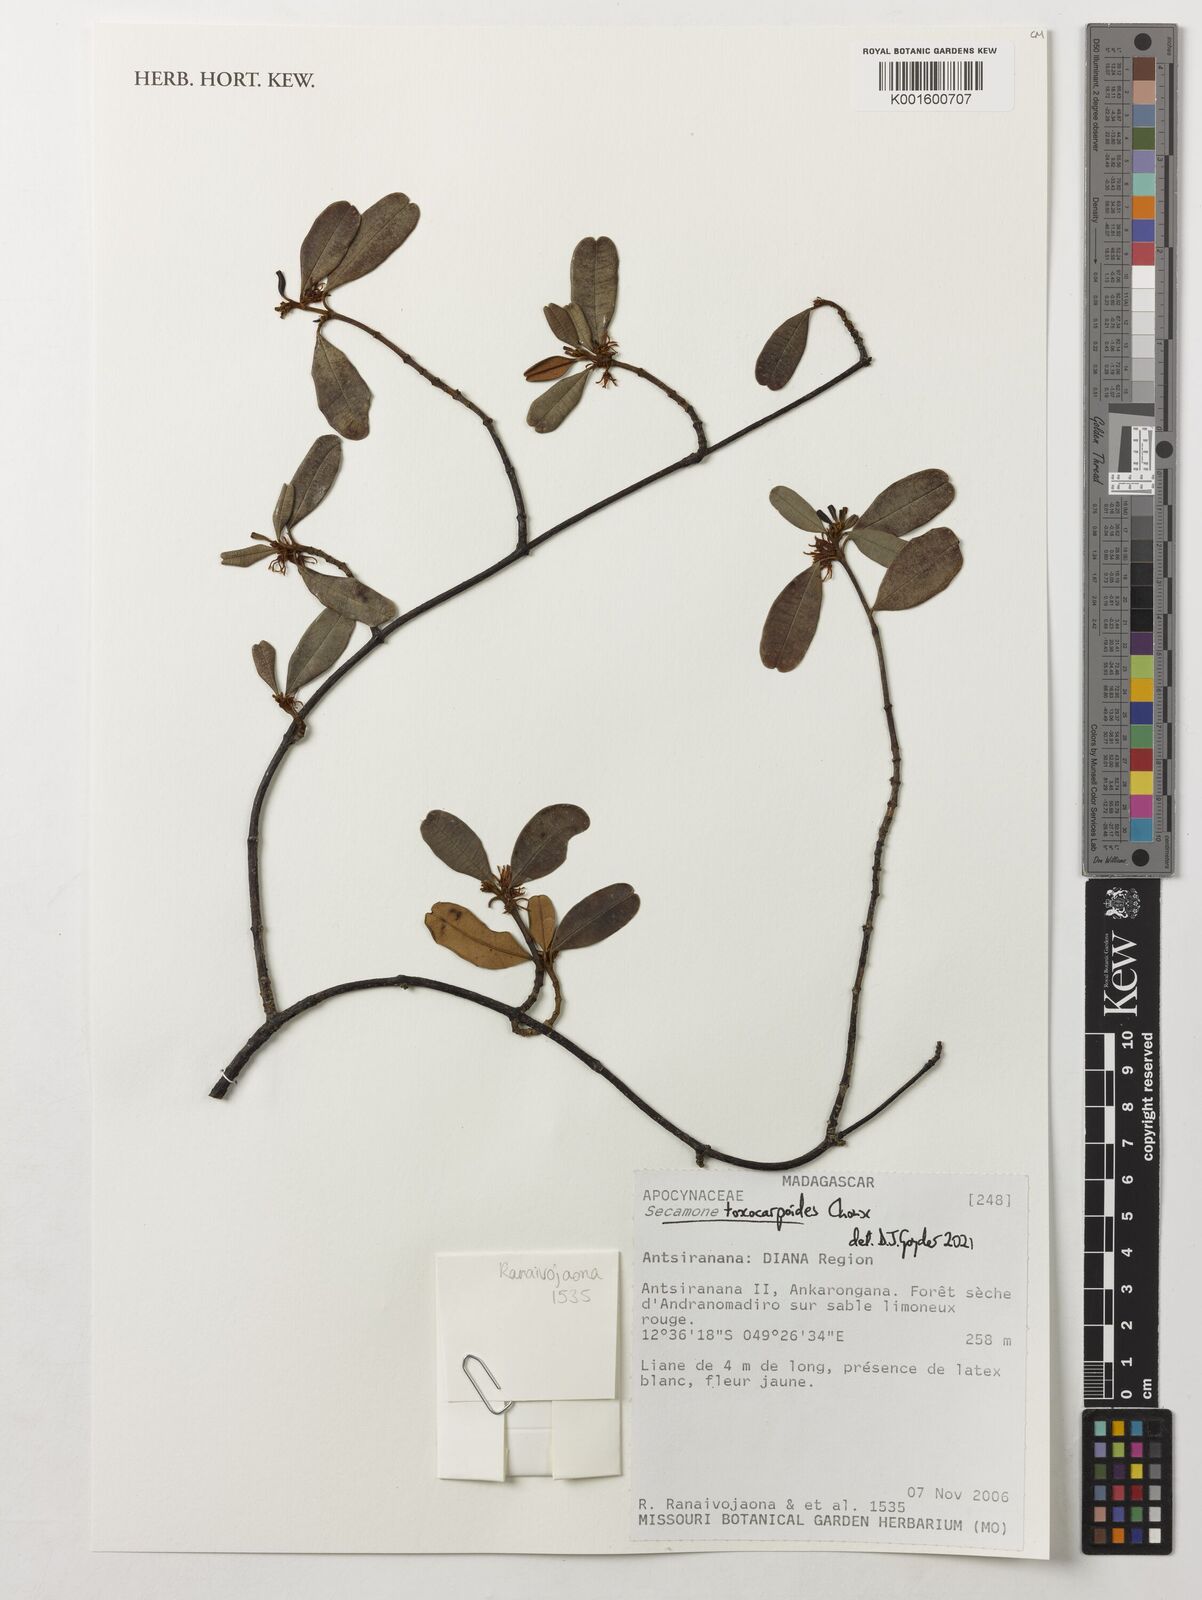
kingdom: Plantae
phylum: Tracheophyta
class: Magnoliopsida
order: Gentianales
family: Apocynaceae
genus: Secamone
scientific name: Secamone toxocarpoides
